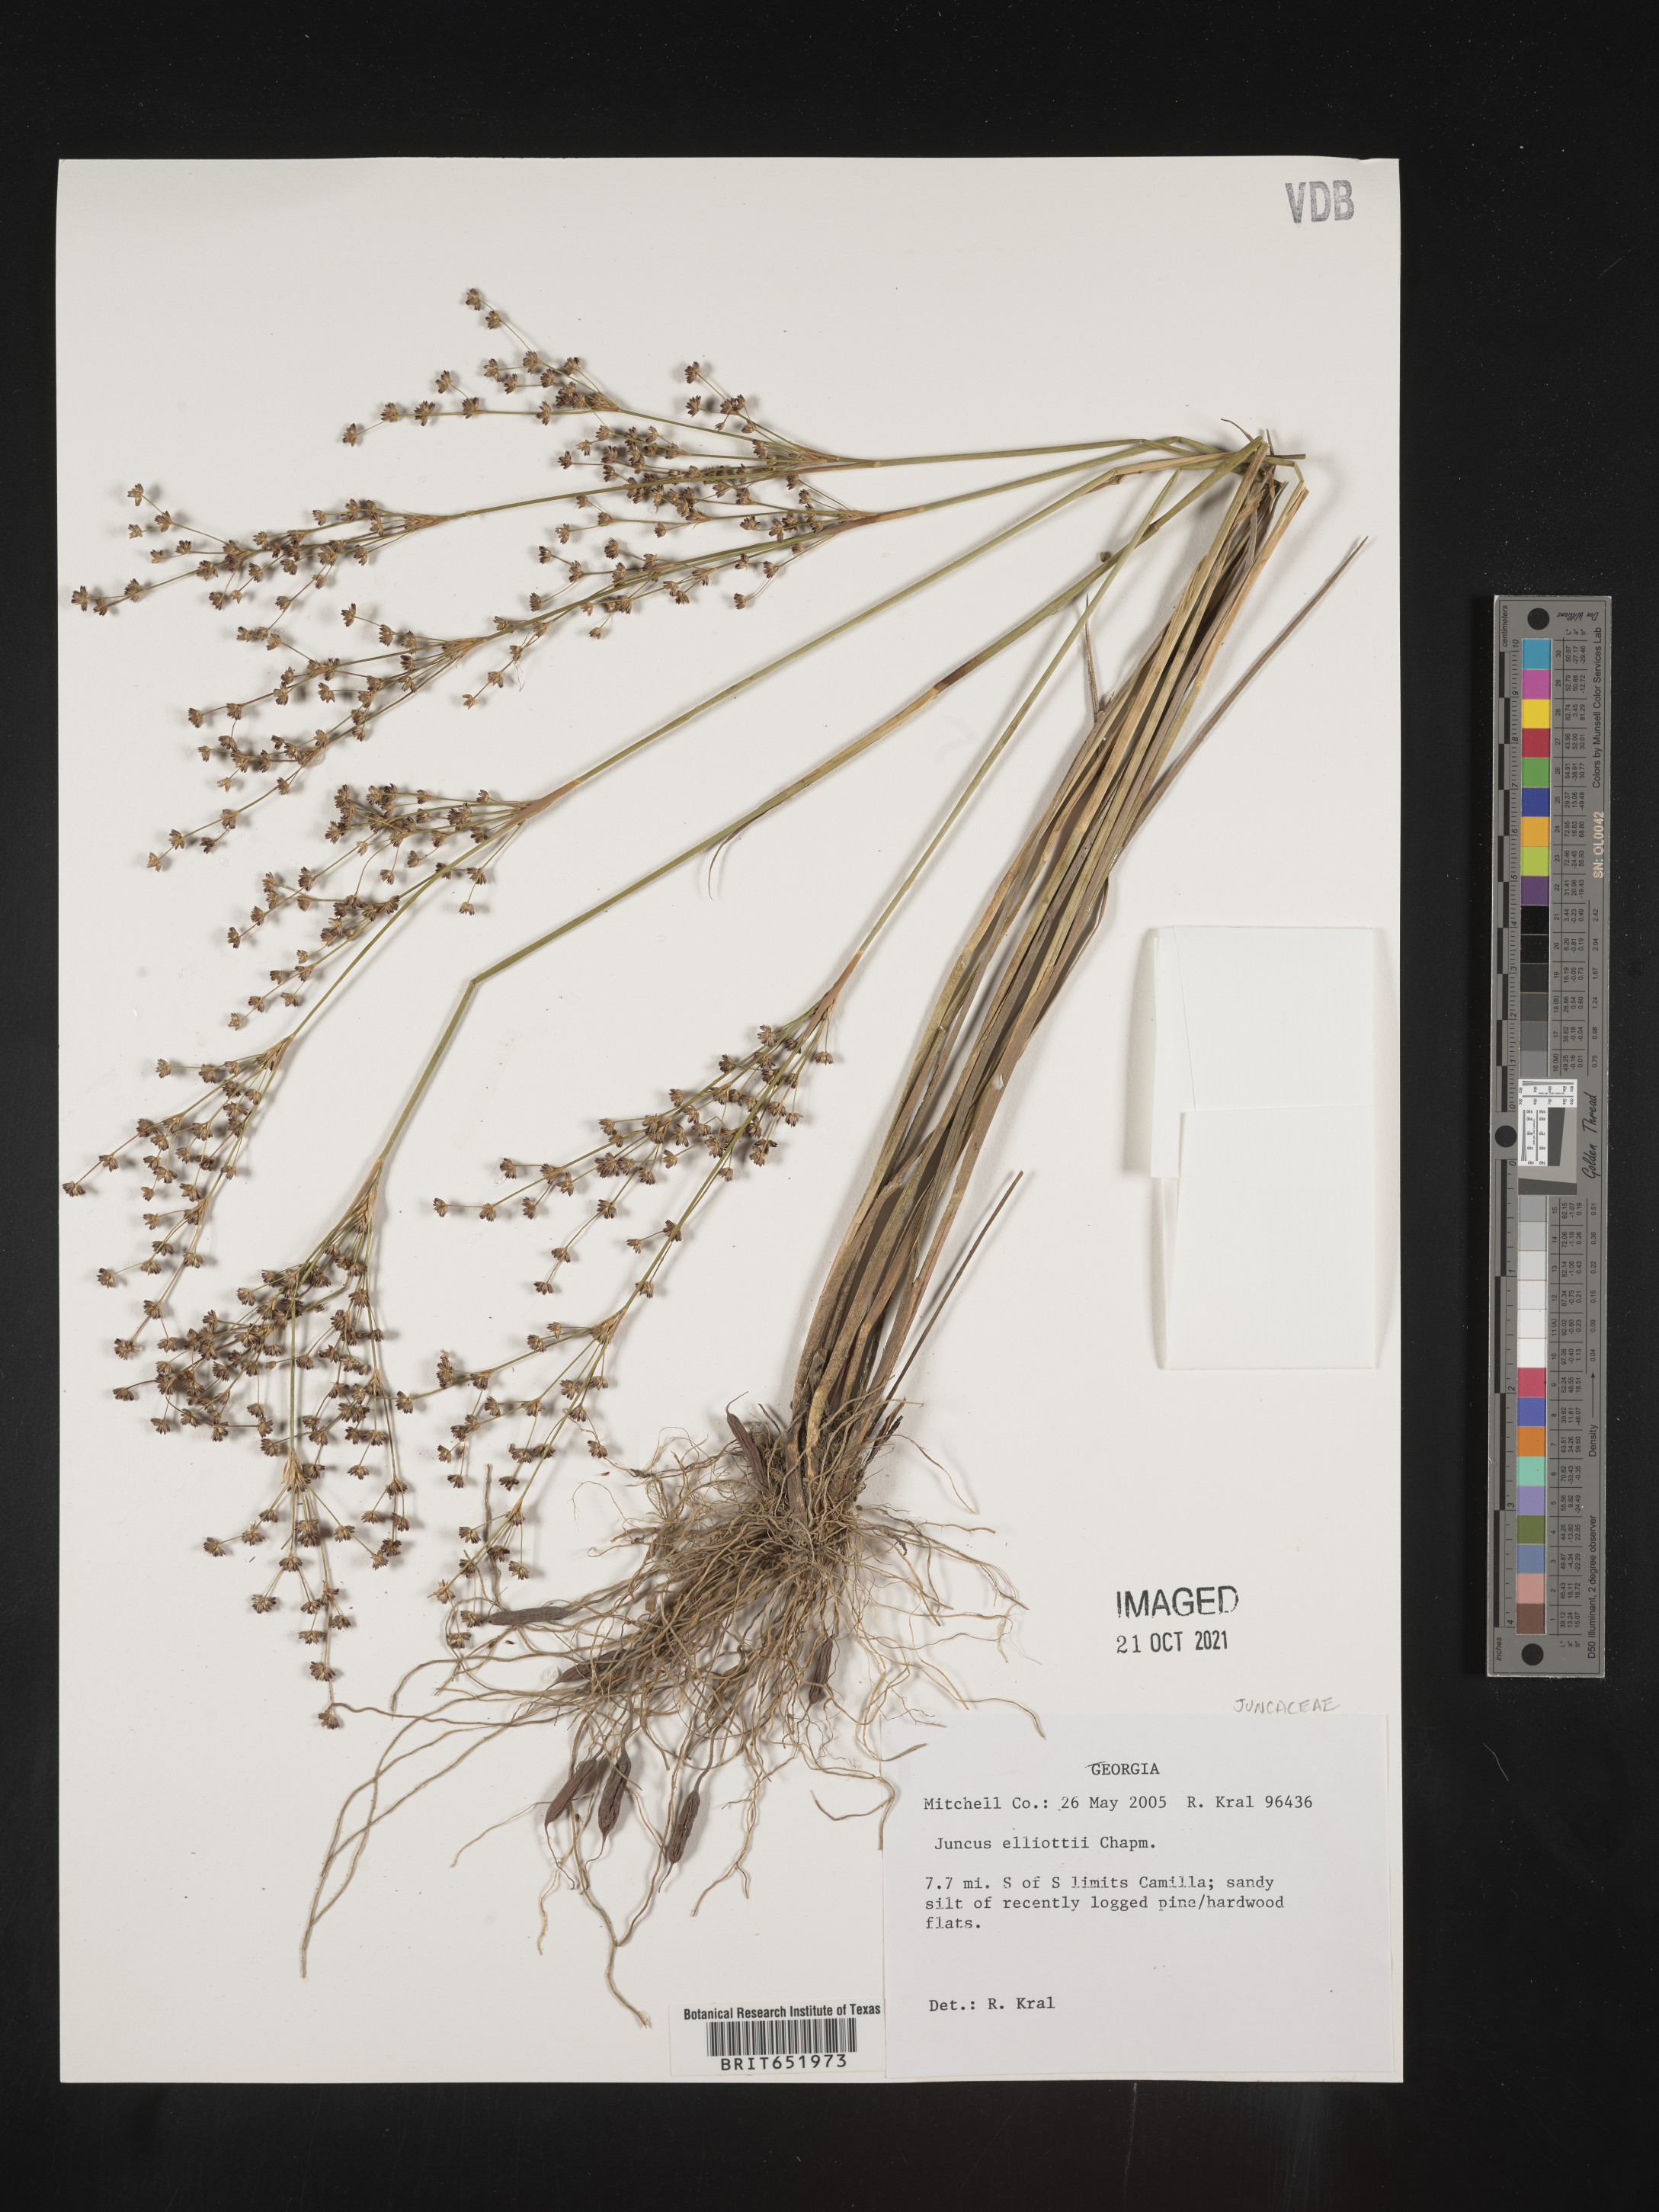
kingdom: Plantae
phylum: Tracheophyta
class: Liliopsida
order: Poales
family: Juncaceae
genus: Juncus
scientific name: Juncus elliottii
